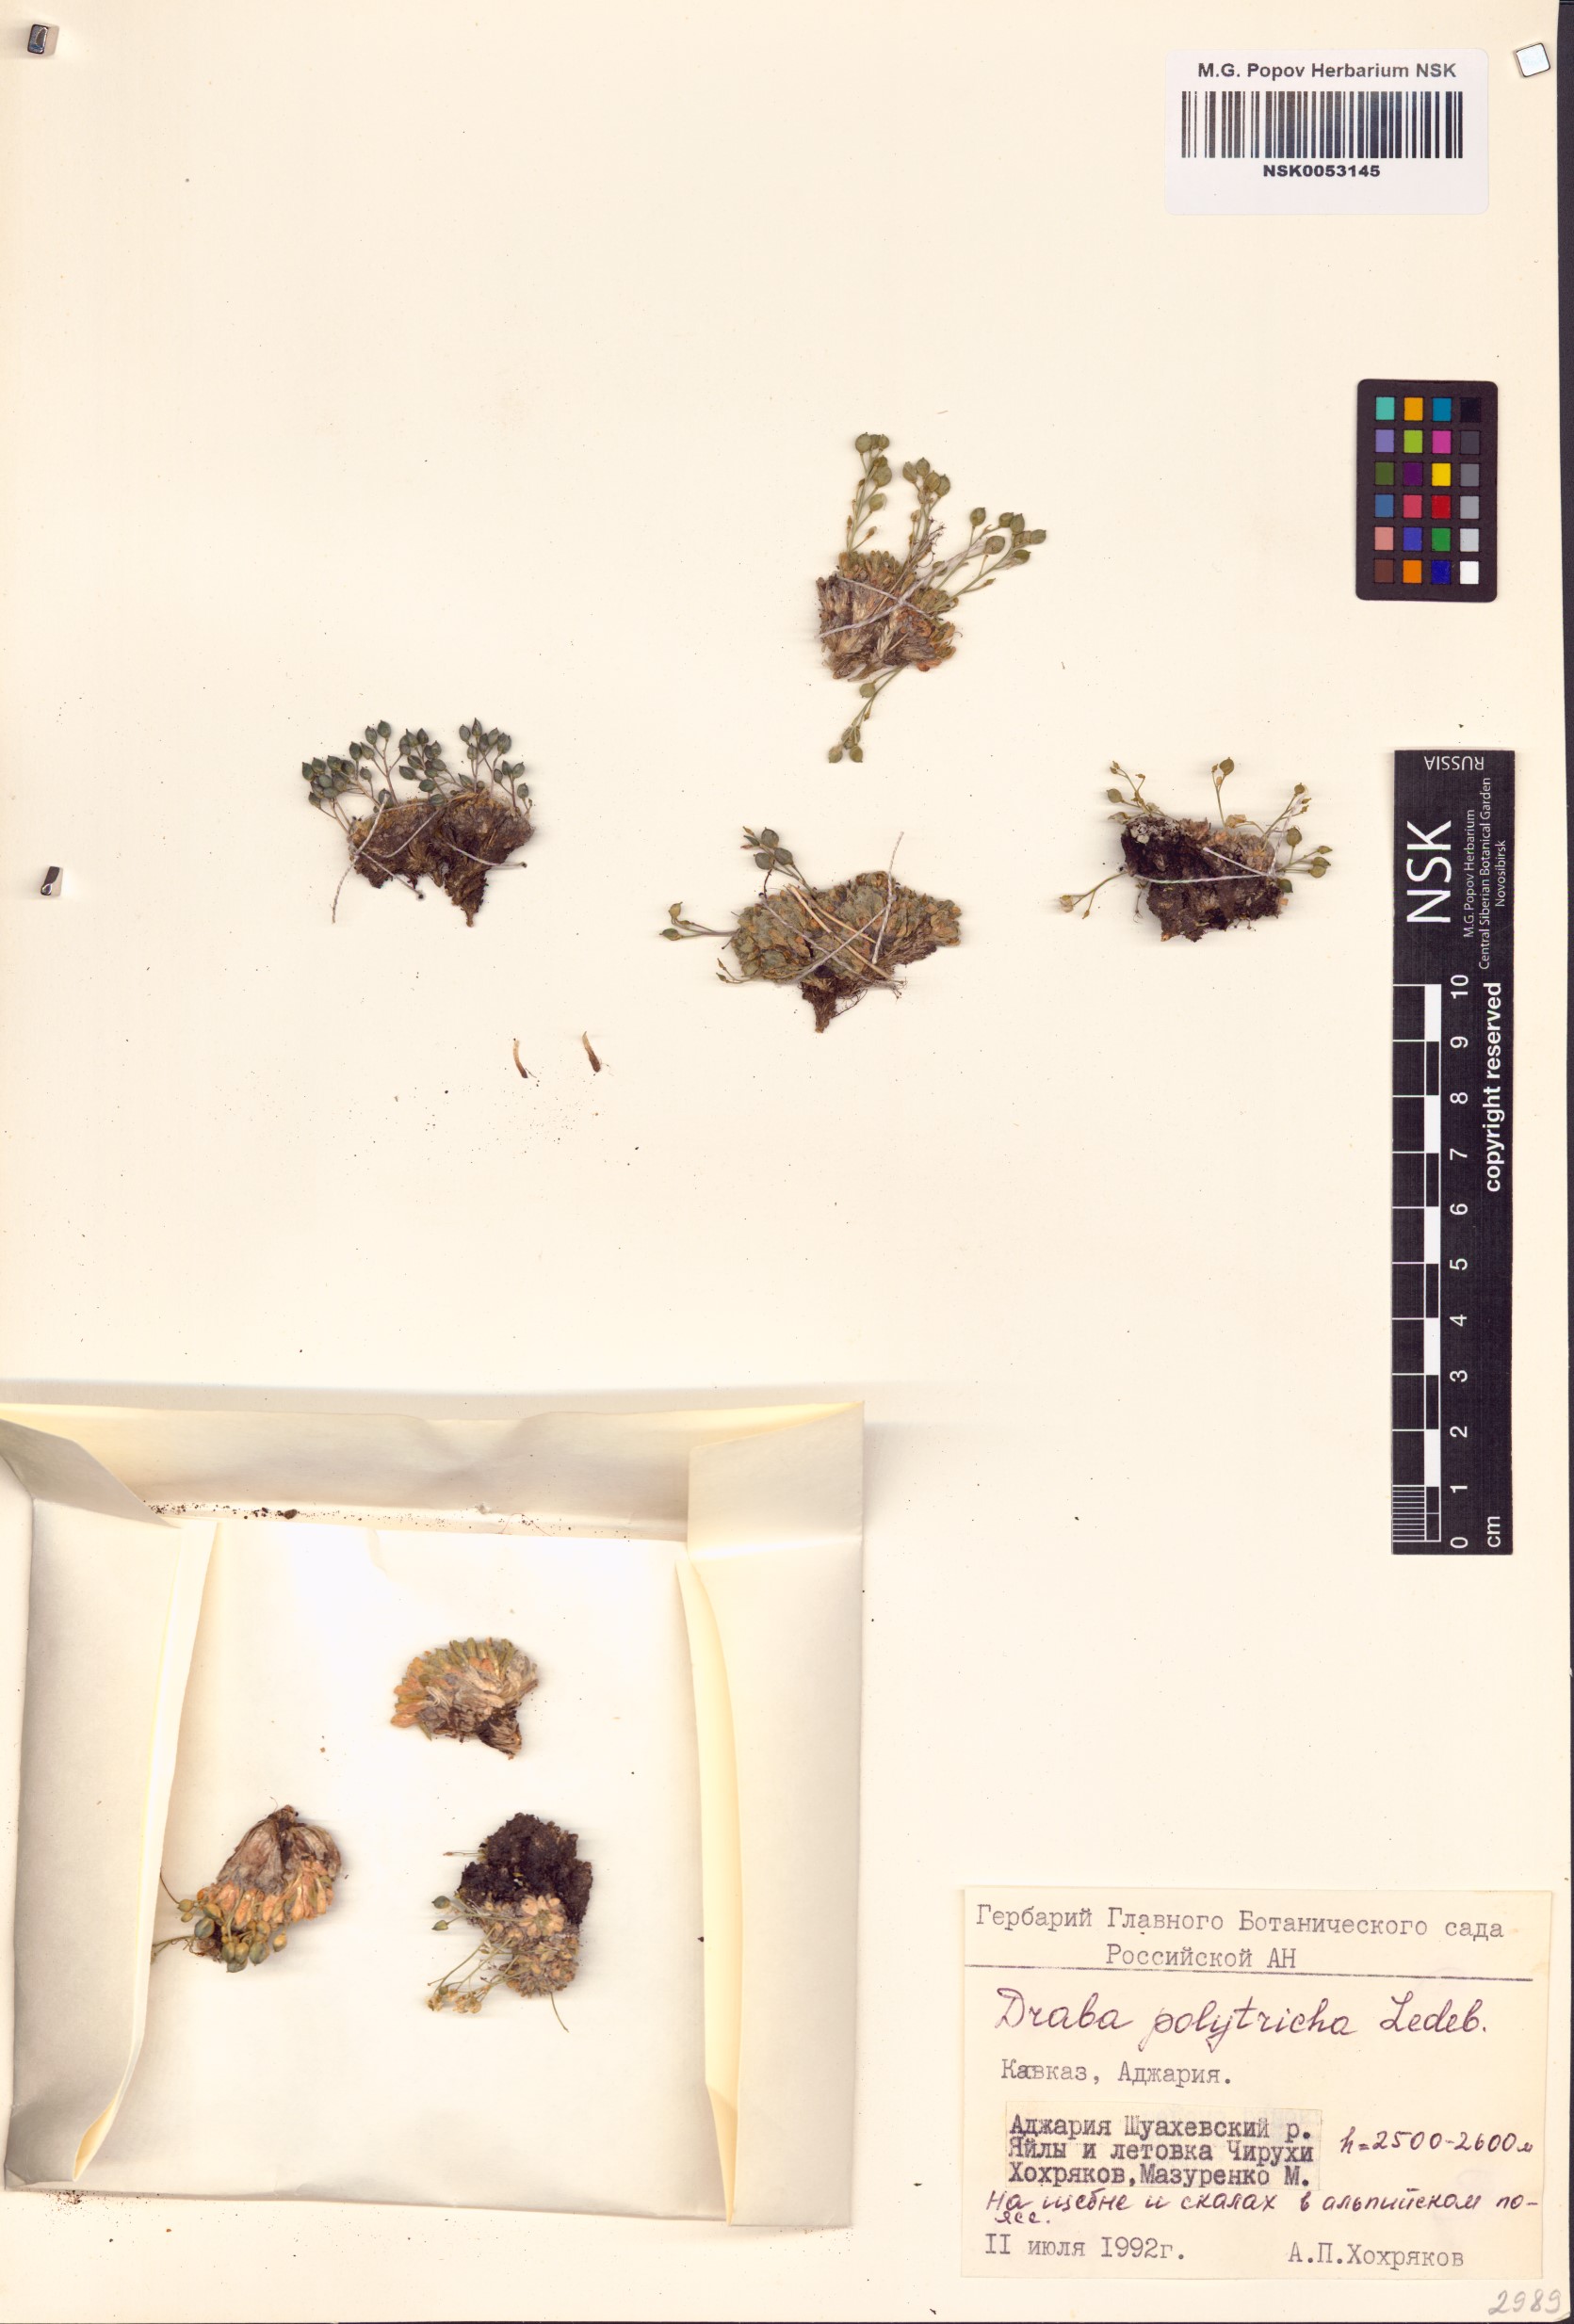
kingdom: Plantae
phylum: Tracheophyta
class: Magnoliopsida
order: Brassicales
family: Brassicaceae
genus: Draba
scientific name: Draba polytricha
